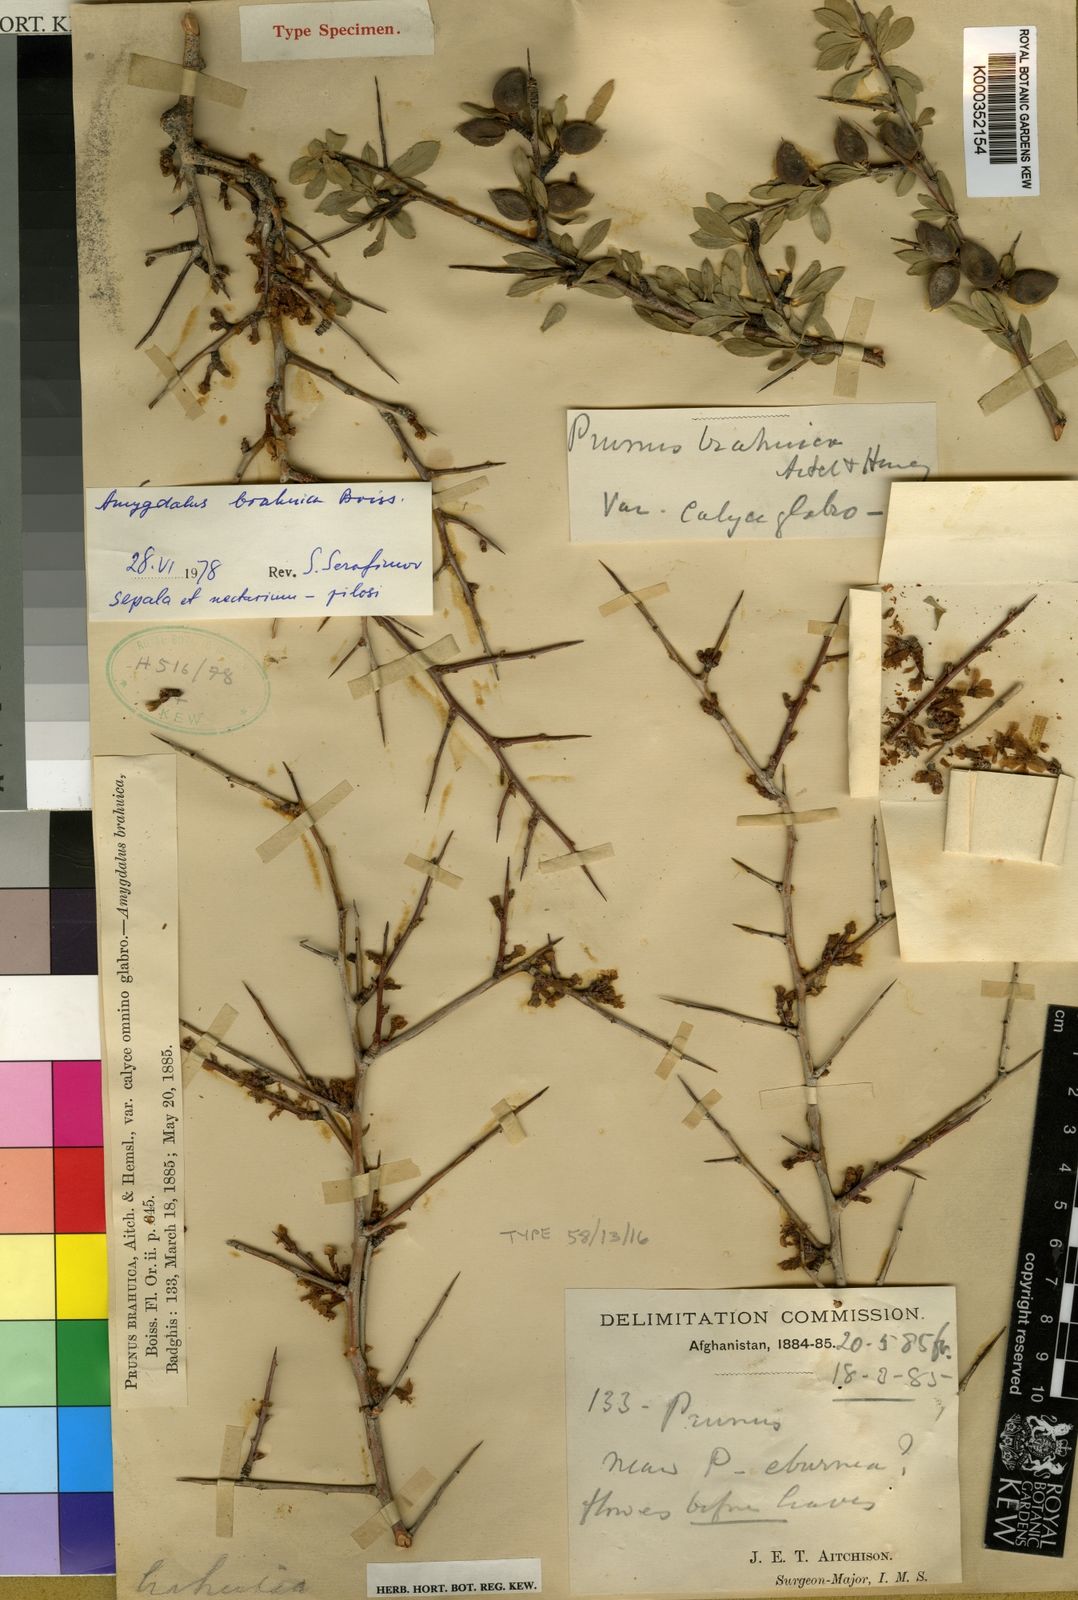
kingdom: Plantae
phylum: Tracheophyta
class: Magnoliopsida
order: Rosales
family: Rosaceae
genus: Prunus
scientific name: Prunus brahuica
